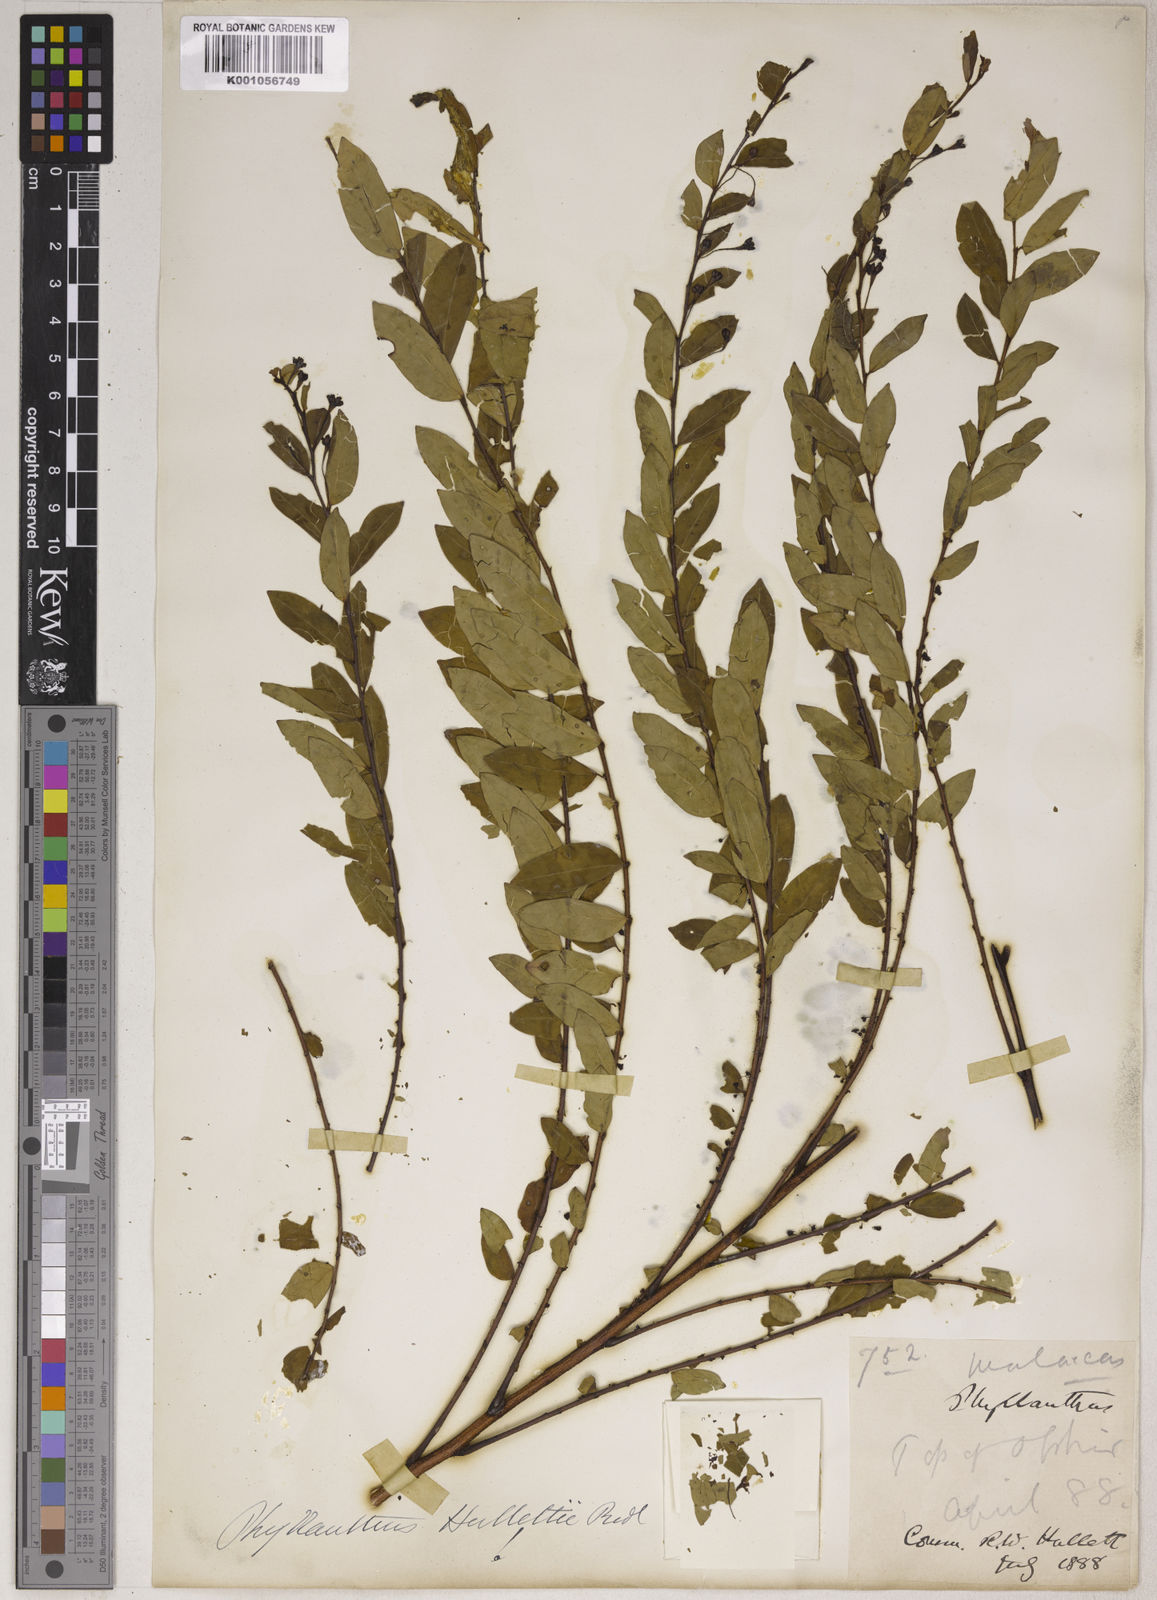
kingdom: Plantae
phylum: Tracheophyta
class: Magnoliopsida
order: Malpighiales
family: Phyllanthaceae
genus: Phyllanthus
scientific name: Phyllanthus
